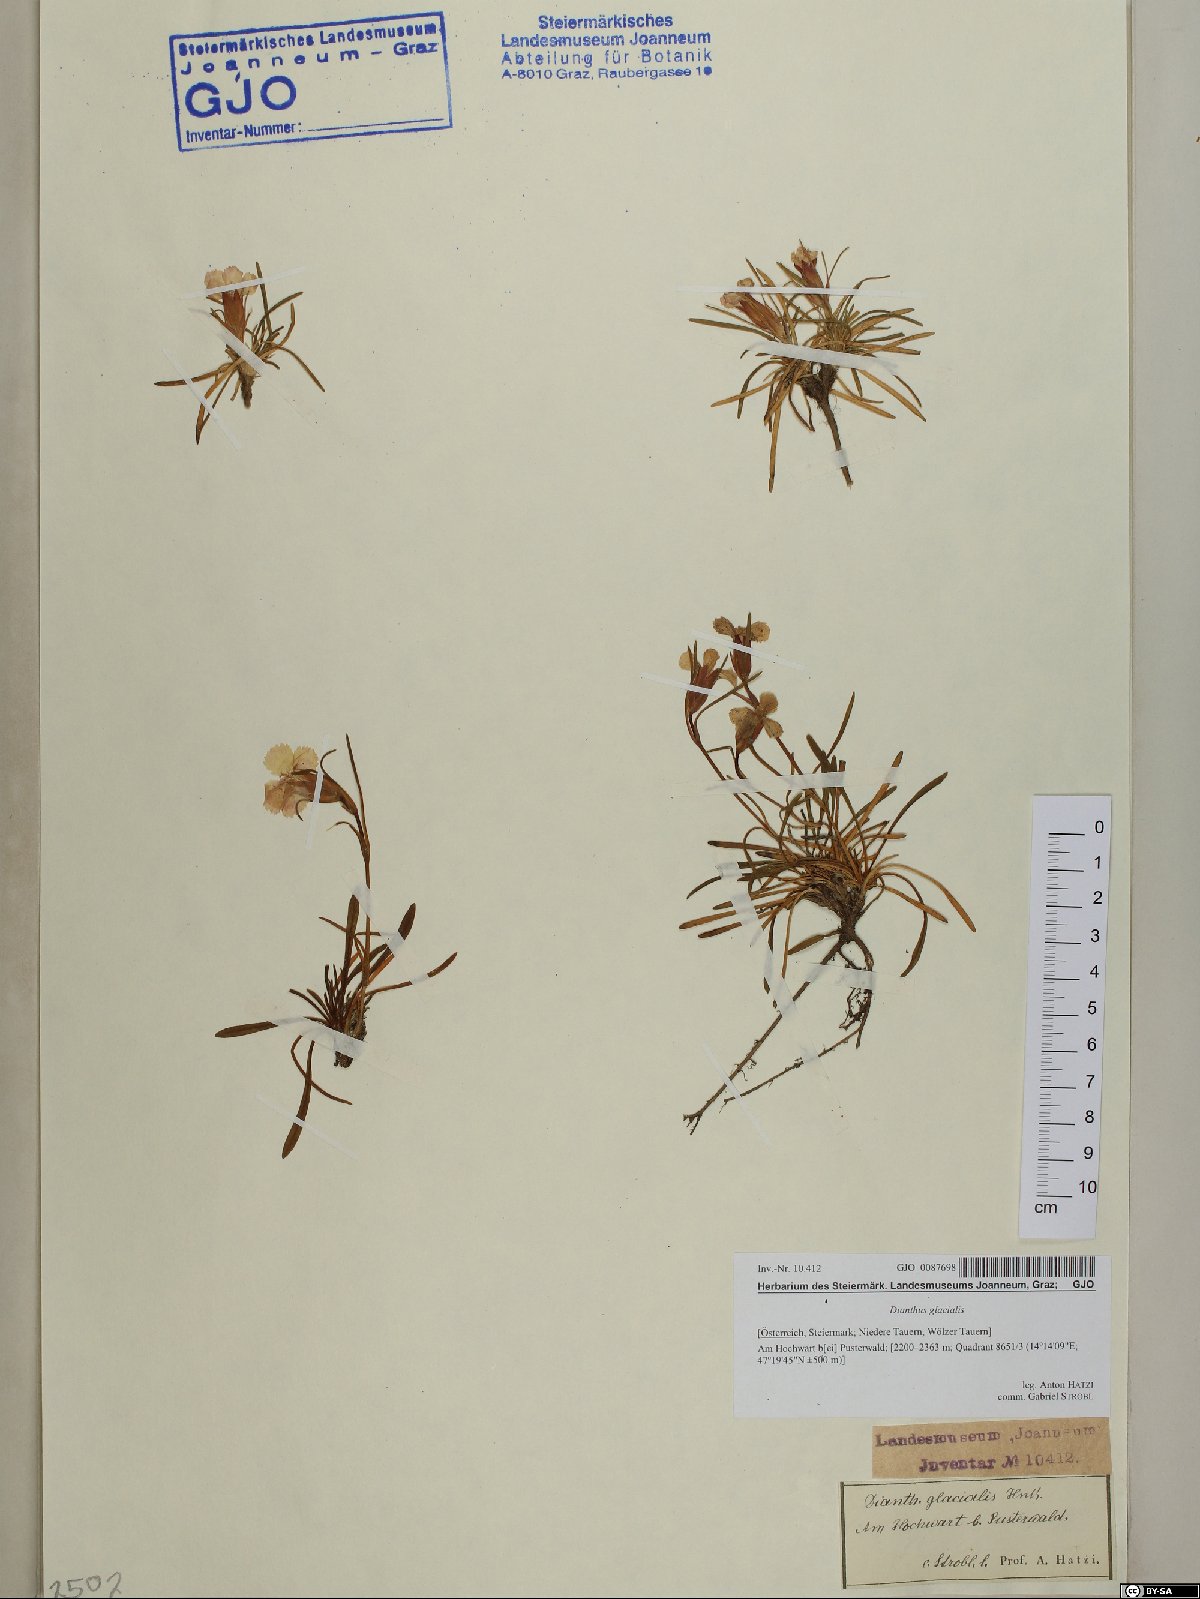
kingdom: Plantae
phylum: Tracheophyta
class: Magnoliopsida
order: Caryophyllales
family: Caryophyllaceae
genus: Dianthus
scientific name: Dianthus glacialis
